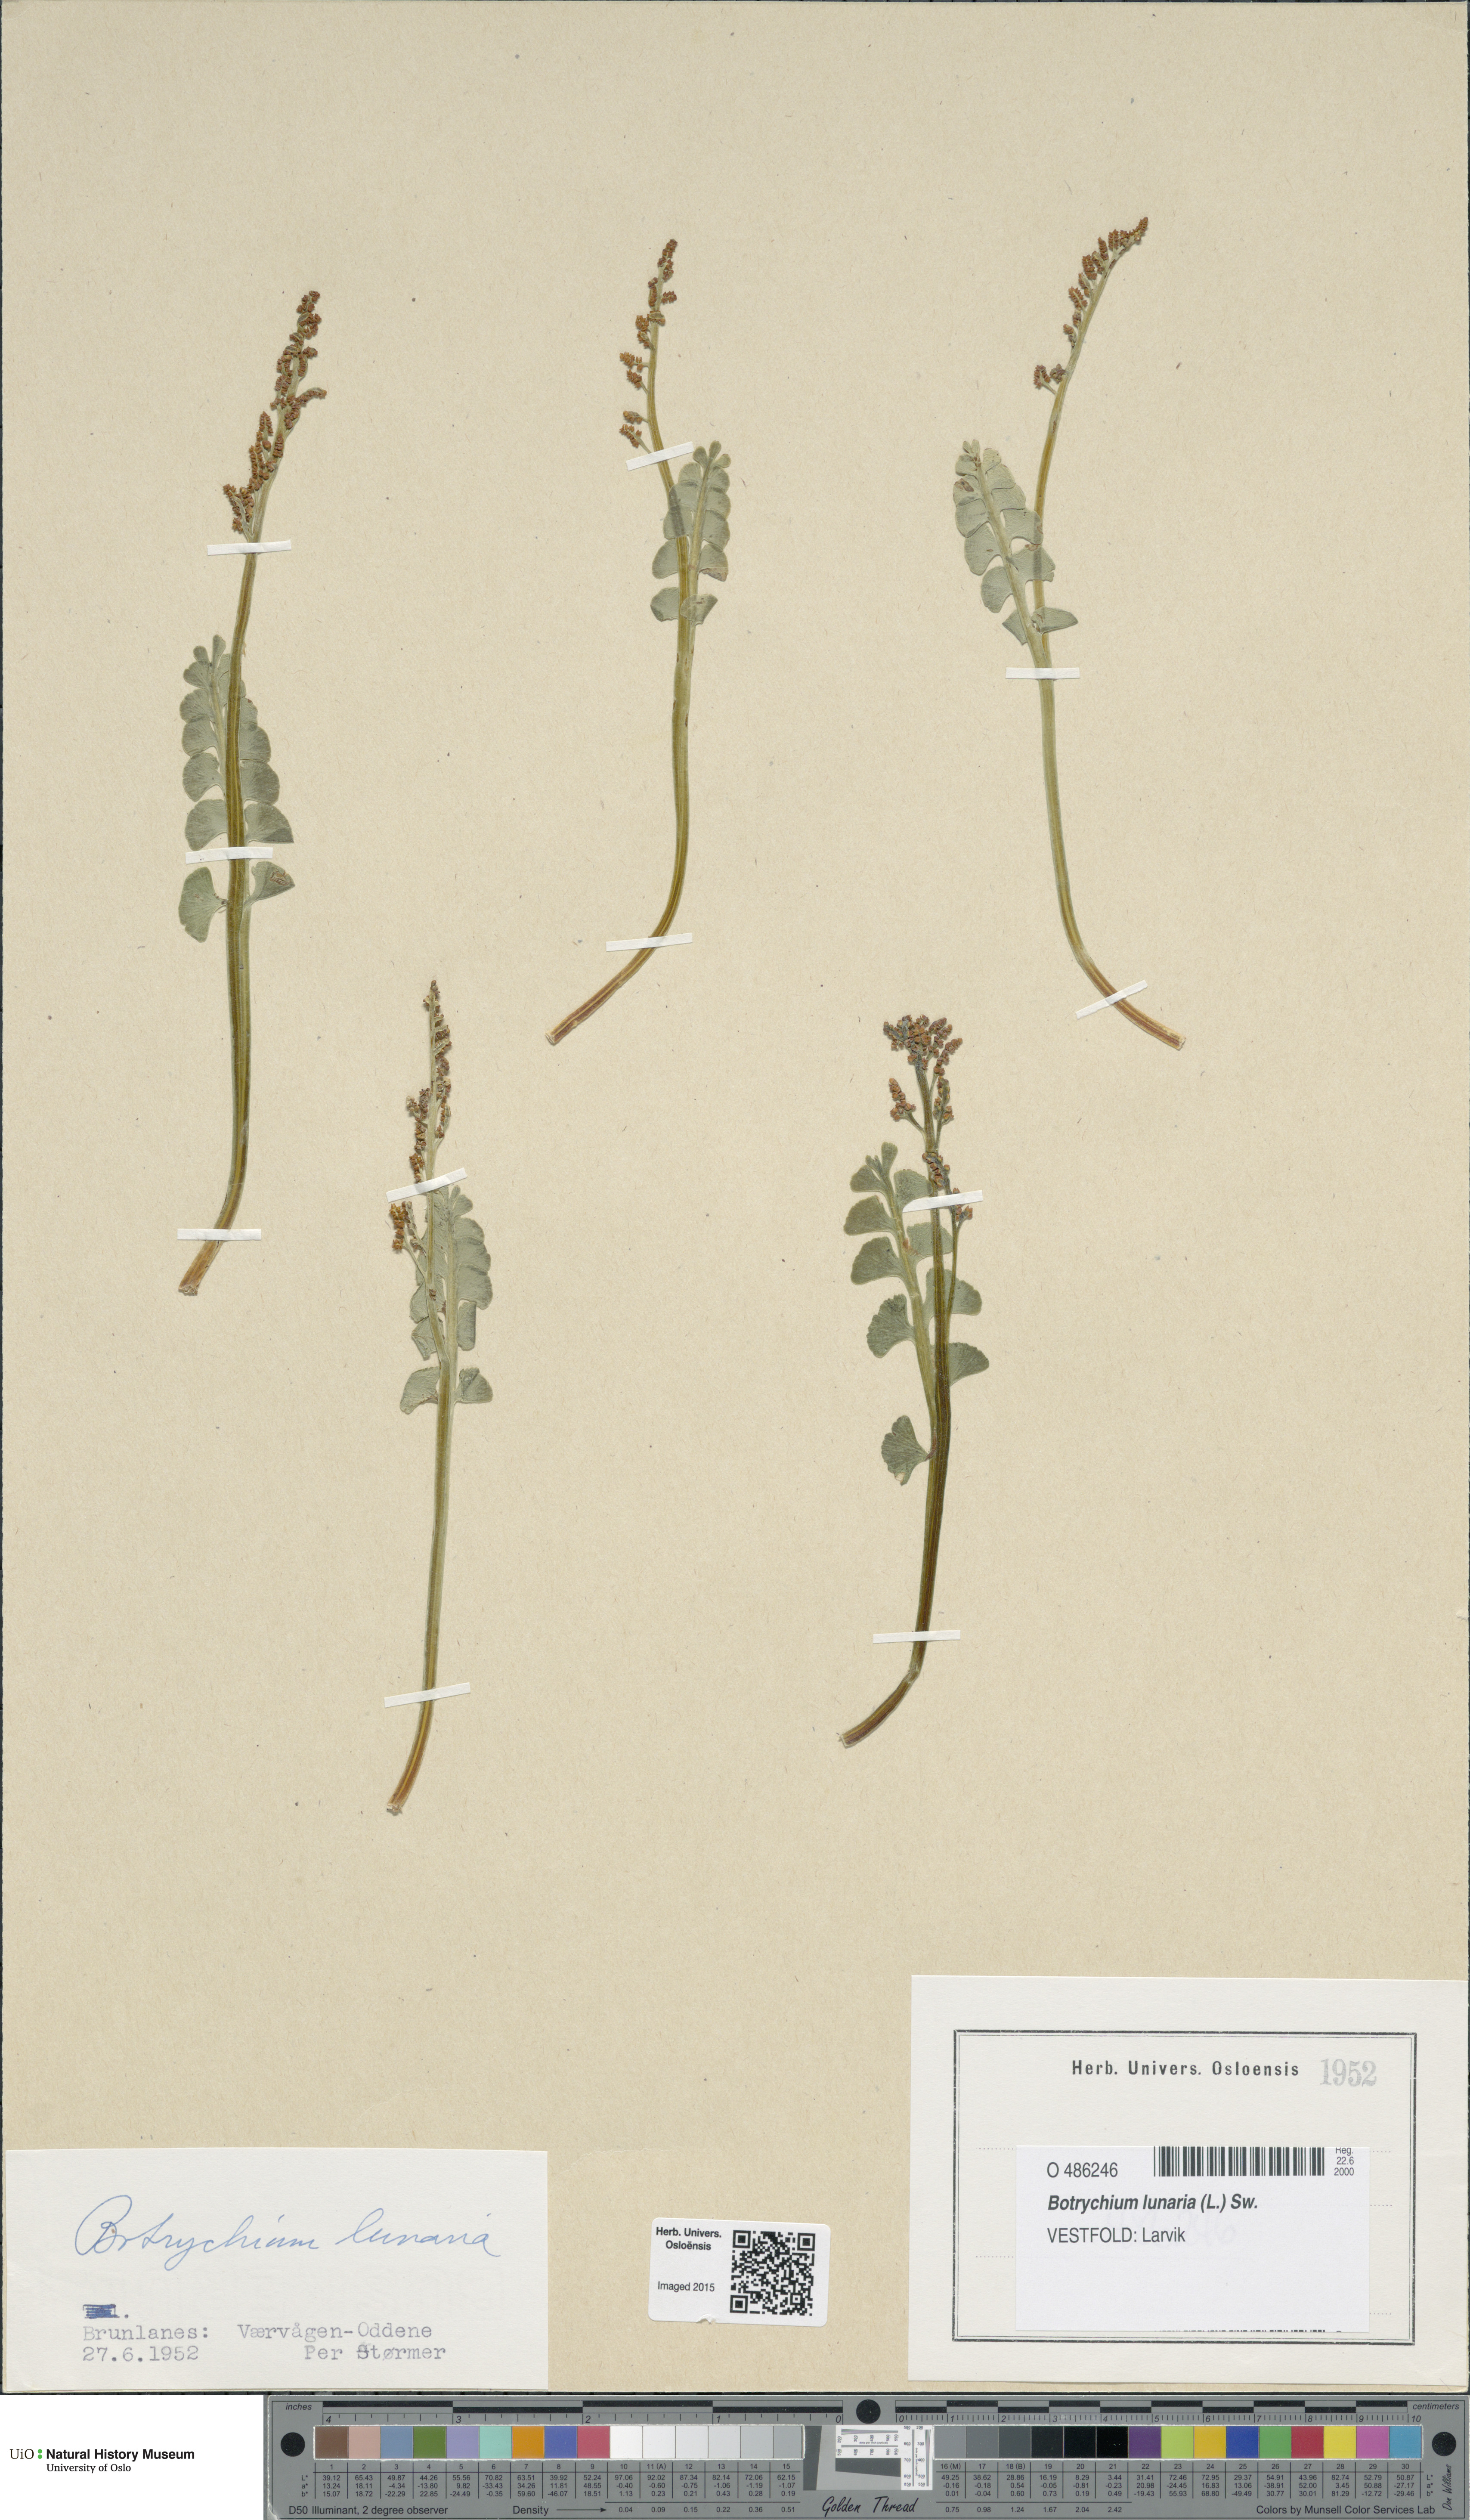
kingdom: Plantae
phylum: Tracheophyta
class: Polypodiopsida
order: Ophioglossales
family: Ophioglossaceae
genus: Botrychium
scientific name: Botrychium lunaria
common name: Moonwort
